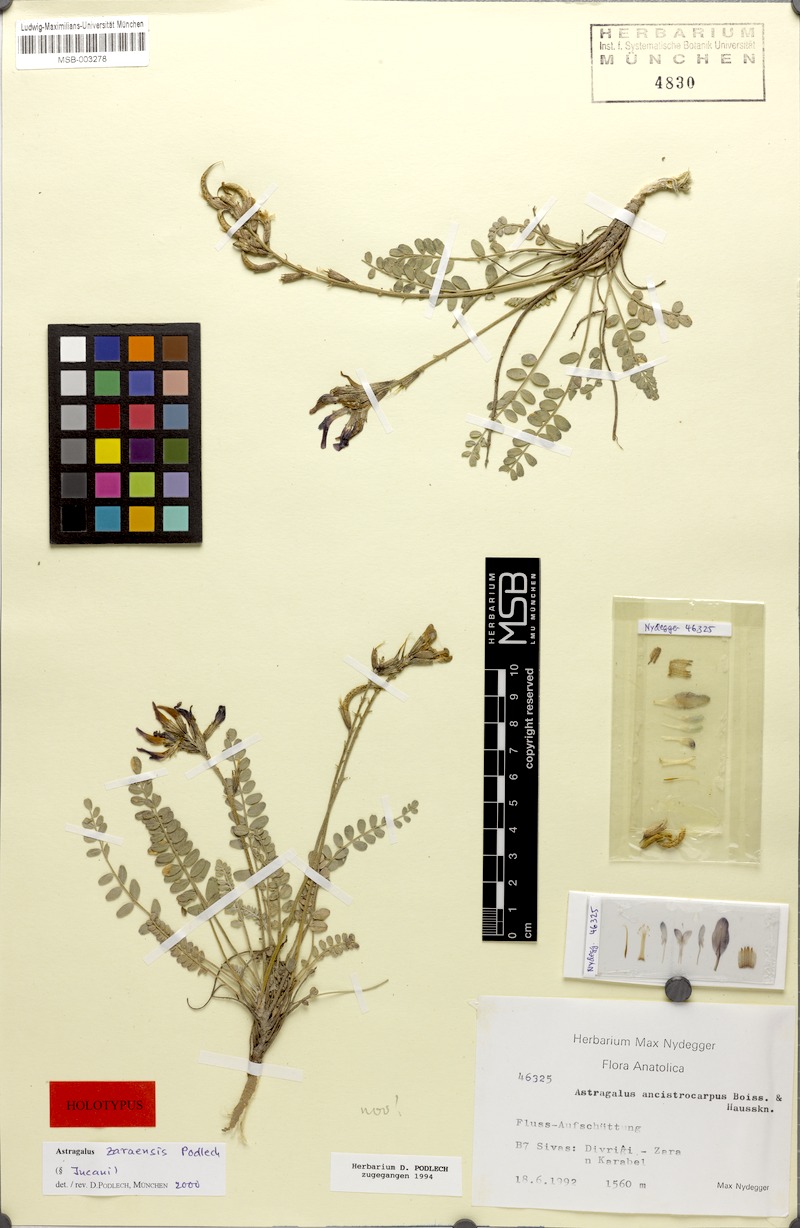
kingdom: Plantae
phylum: Tracheophyta
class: Magnoliopsida
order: Fabales
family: Fabaceae
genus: Astragalus
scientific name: Astragalus zaraensis
